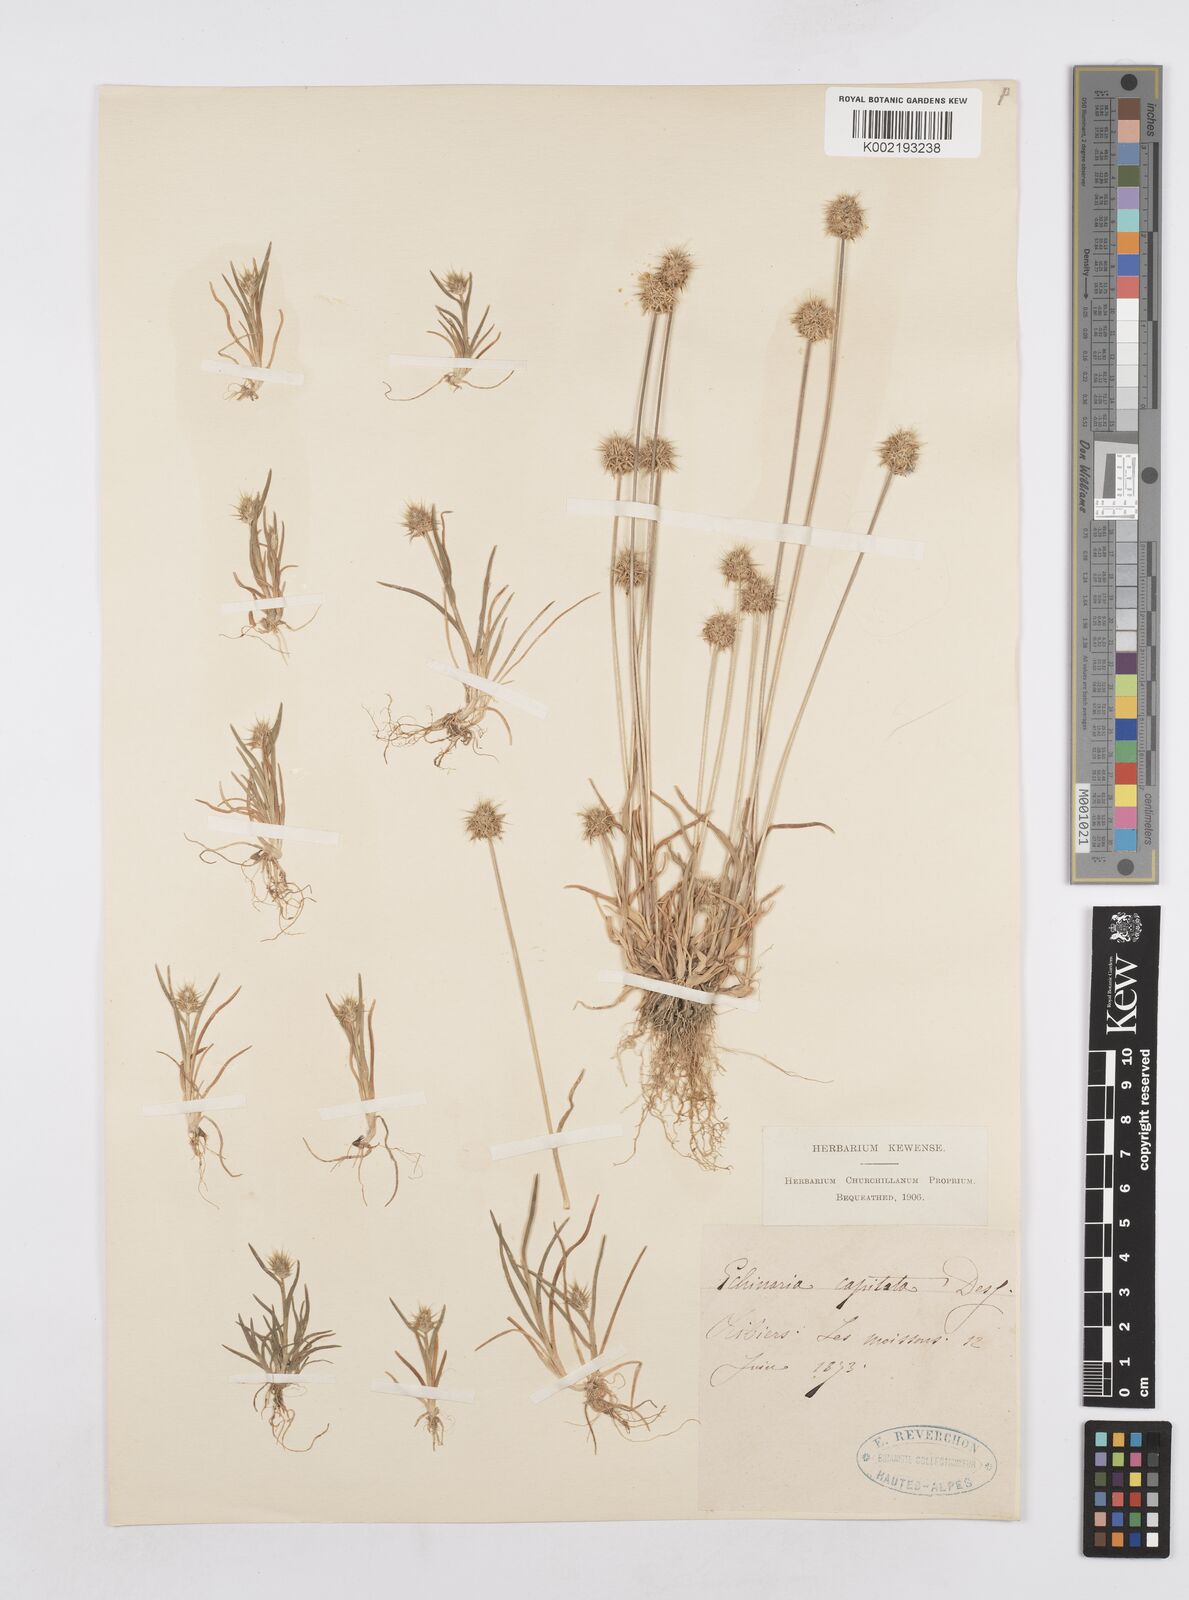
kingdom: Plantae
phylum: Tracheophyta
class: Liliopsida
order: Poales
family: Poaceae
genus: Echinaria
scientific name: Echinaria capitata
